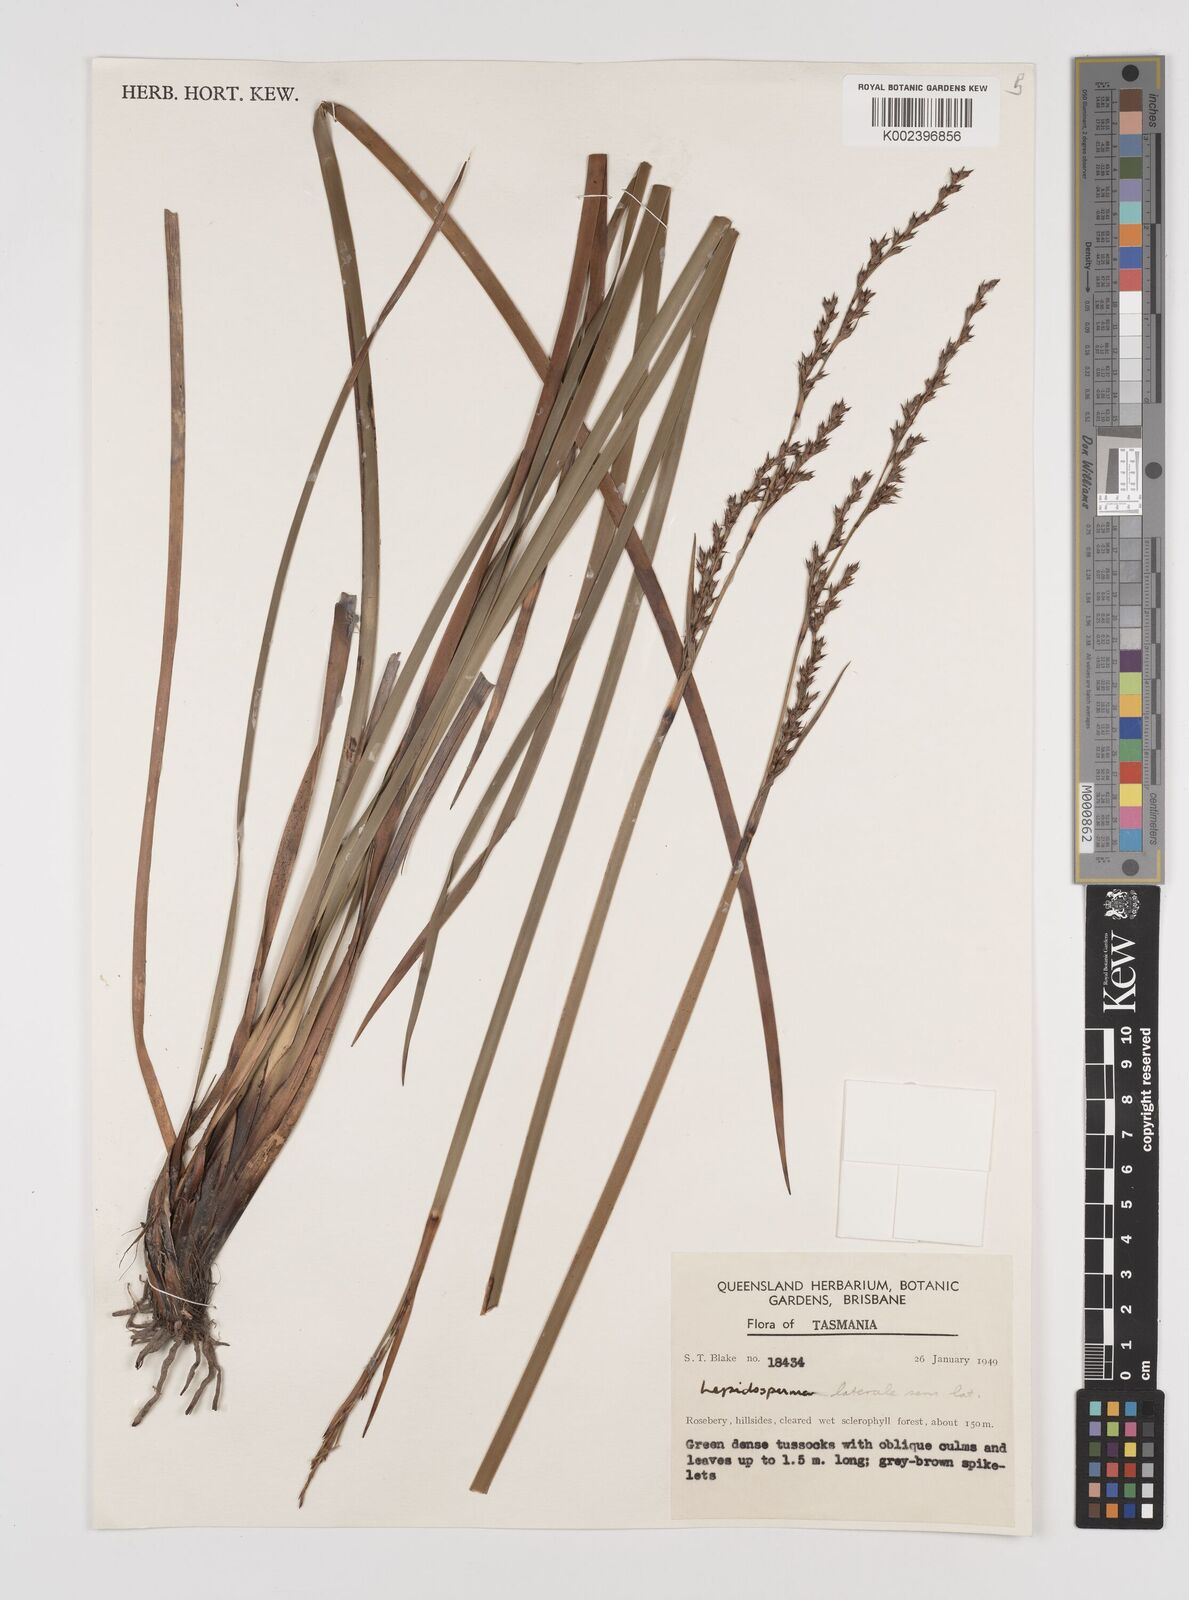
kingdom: Plantae
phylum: Tracheophyta
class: Liliopsida
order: Poales
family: Cyperaceae
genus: Lepidosperma
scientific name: Lepidosperma laterale
